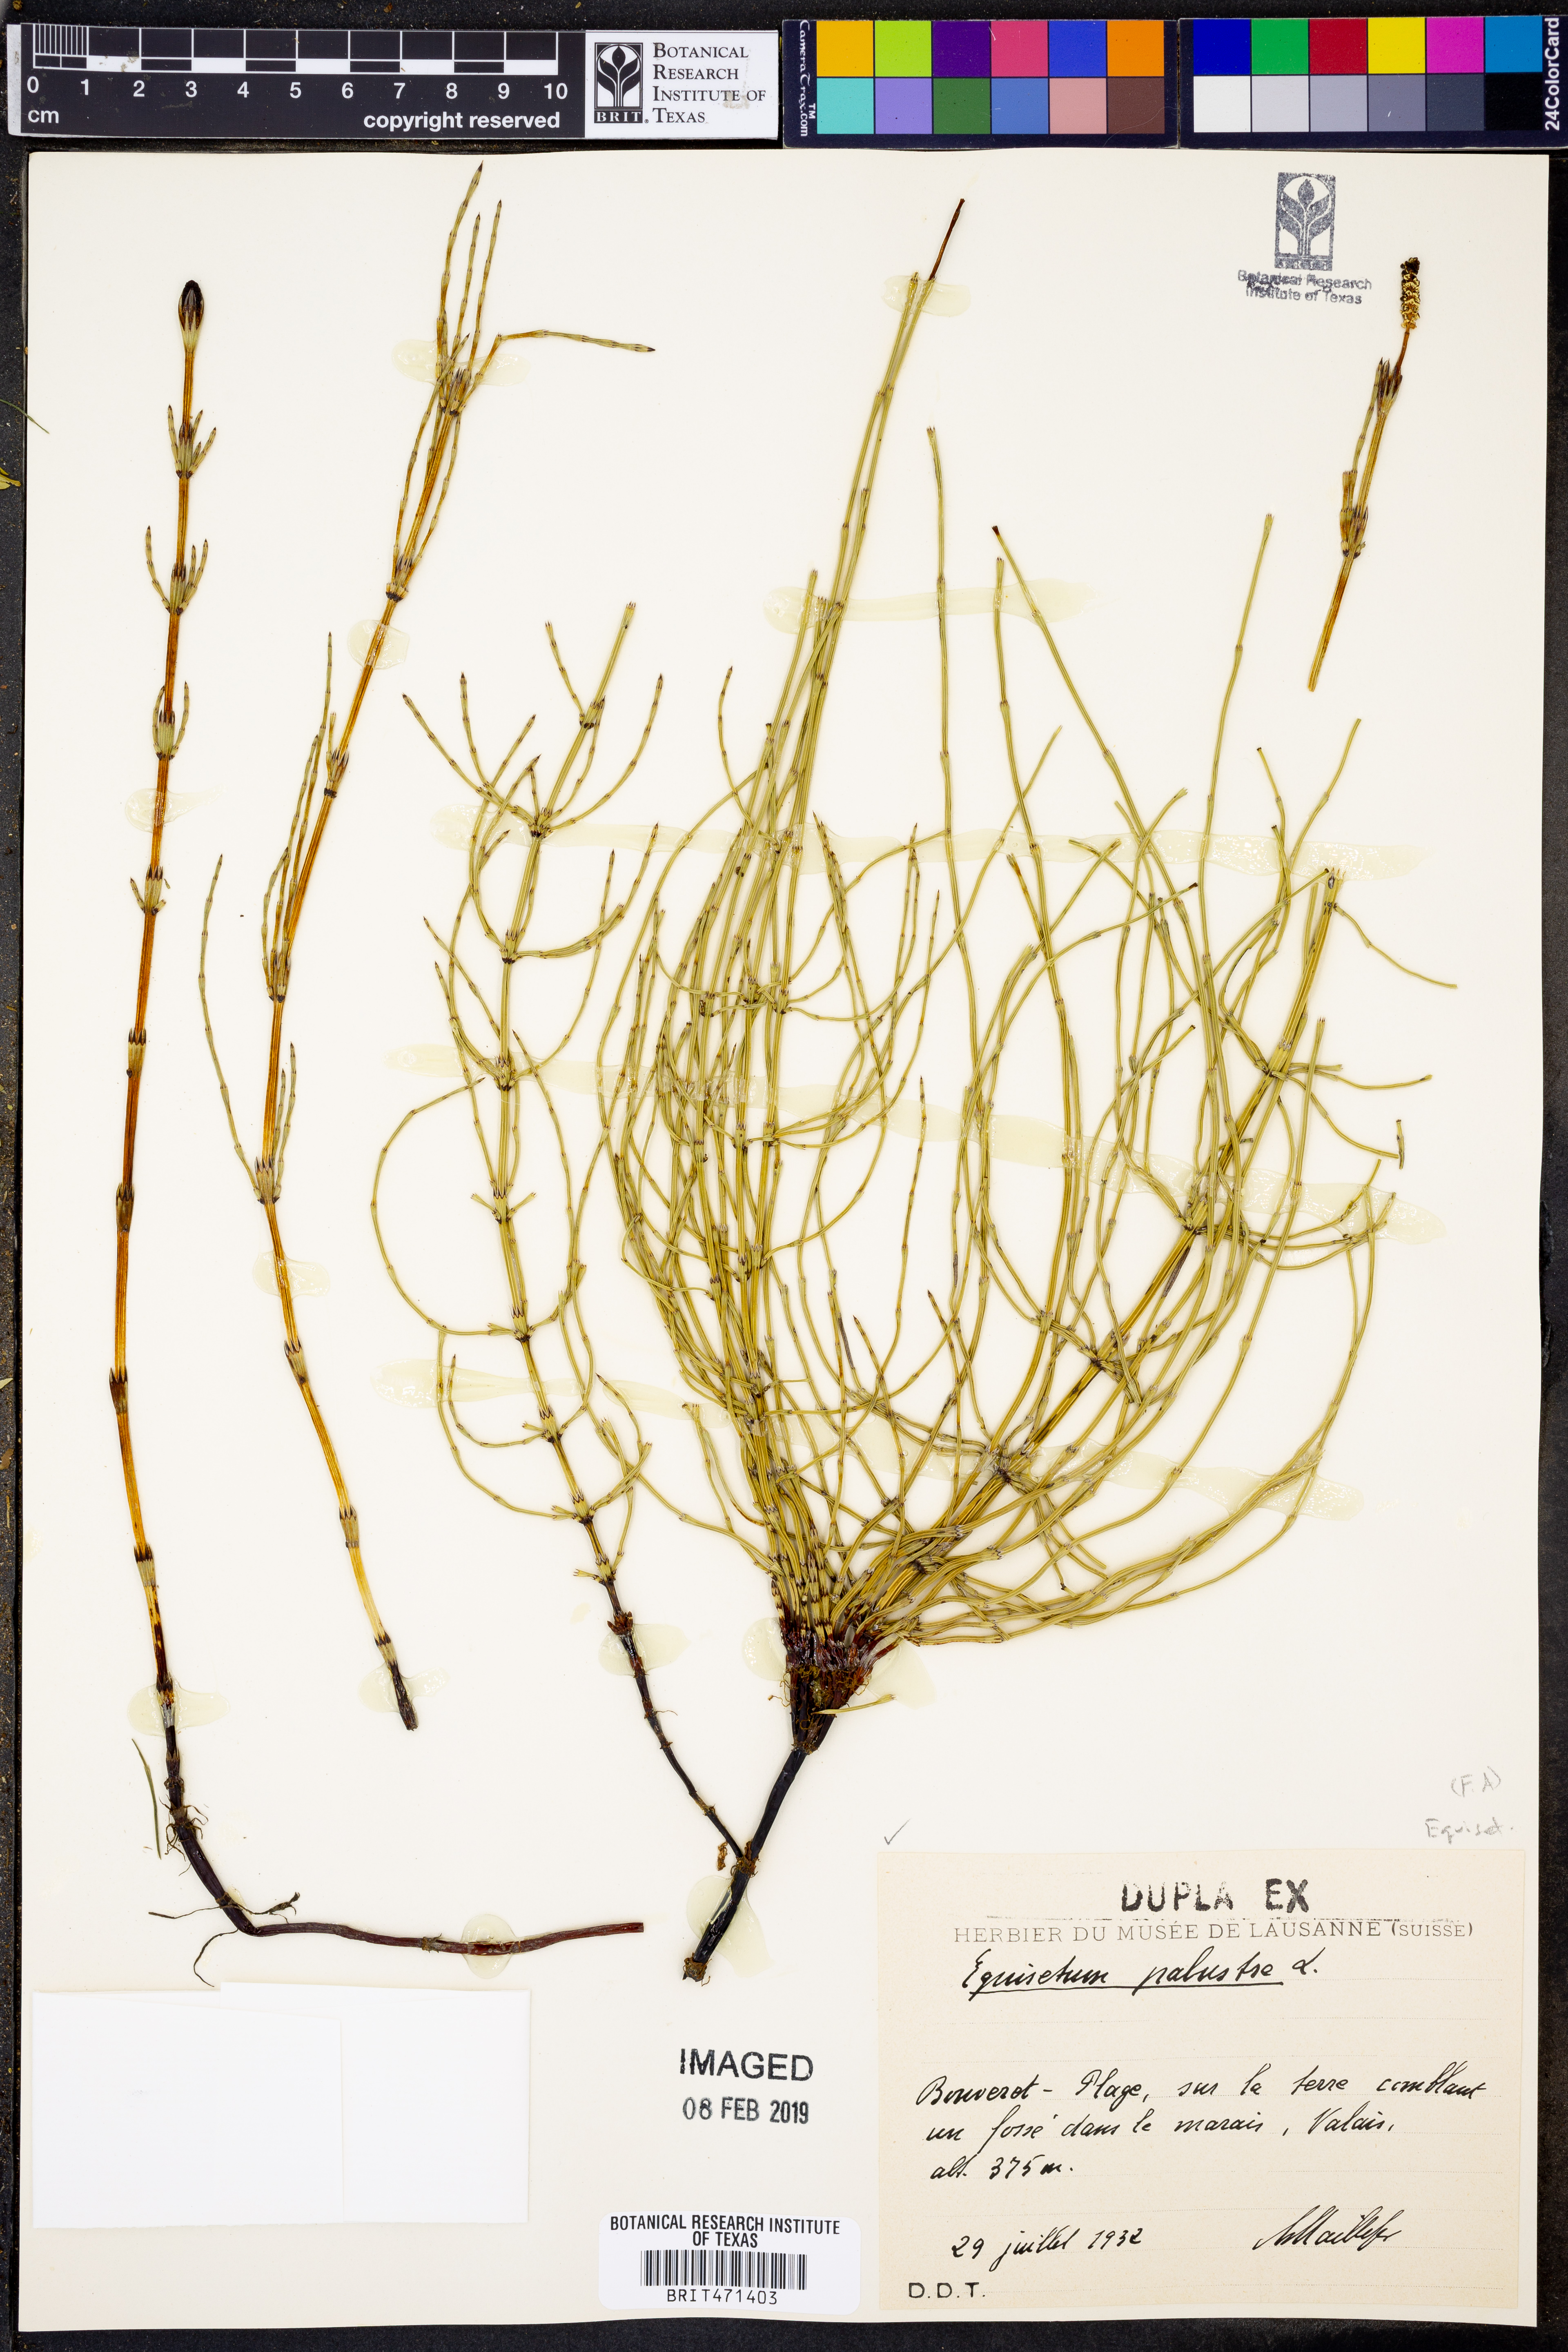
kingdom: Plantae
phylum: Tracheophyta
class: Polypodiopsida
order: Equisetales
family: Equisetaceae
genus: Equisetum
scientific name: Equisetum palustre
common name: Marsh horsetail
